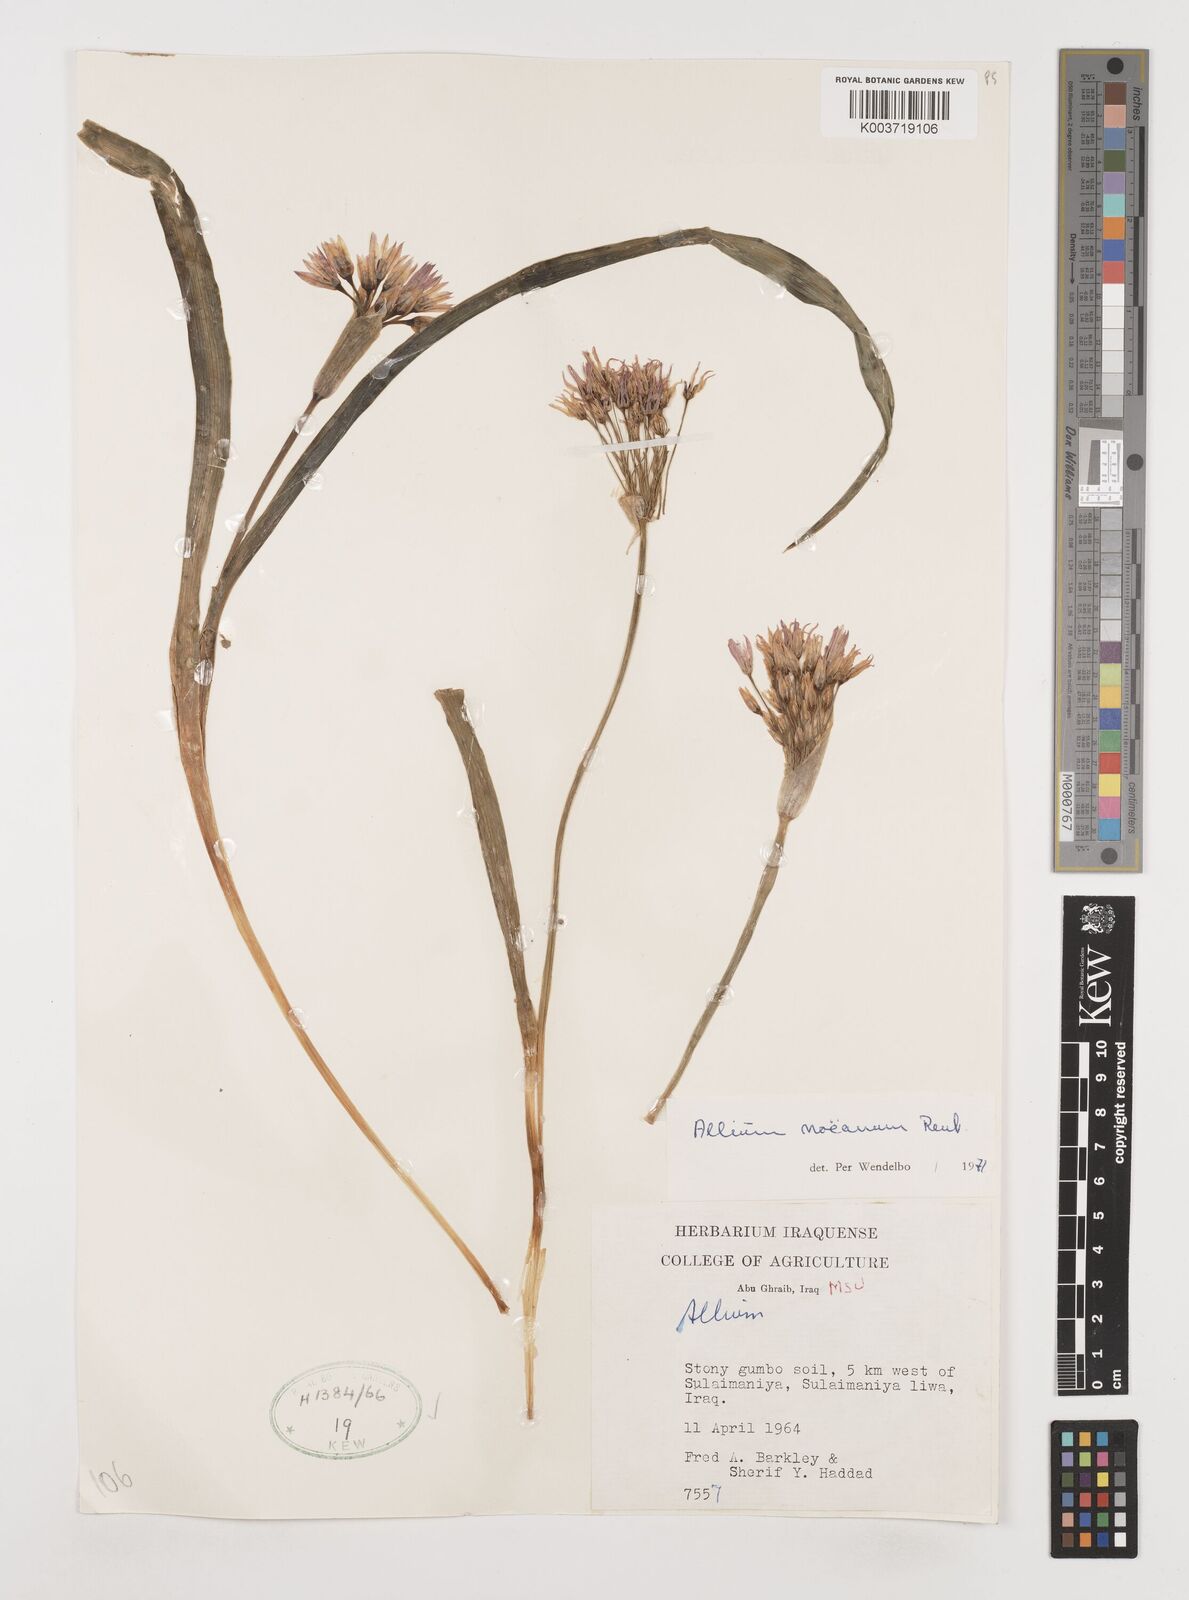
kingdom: Plantae
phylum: Tracheophyta
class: Liliopsida
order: Asparagales
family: Amaryllidaceae
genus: Allium
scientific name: Allium noeanum
